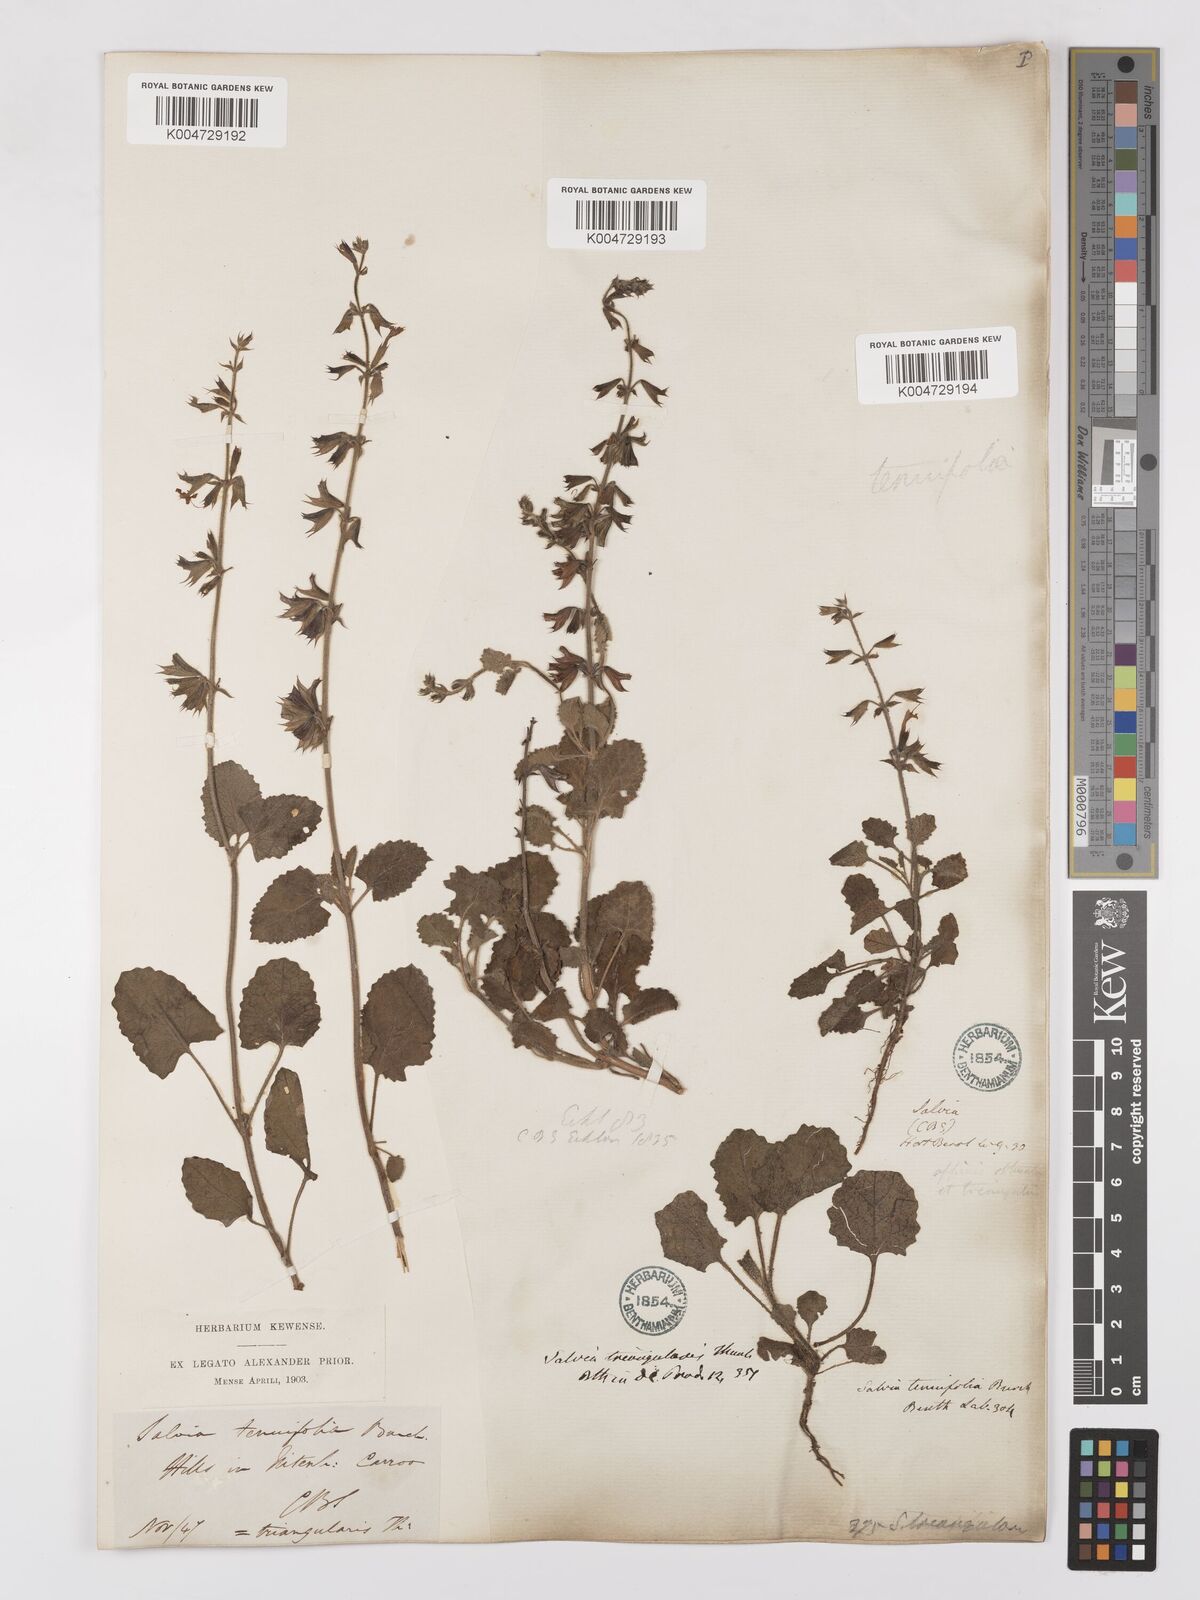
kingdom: Plantae
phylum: Tracheophyta
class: Magnoliopsida
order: Lamiales
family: Lamiaceae
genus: Salvia
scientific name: Salvia triangularis
